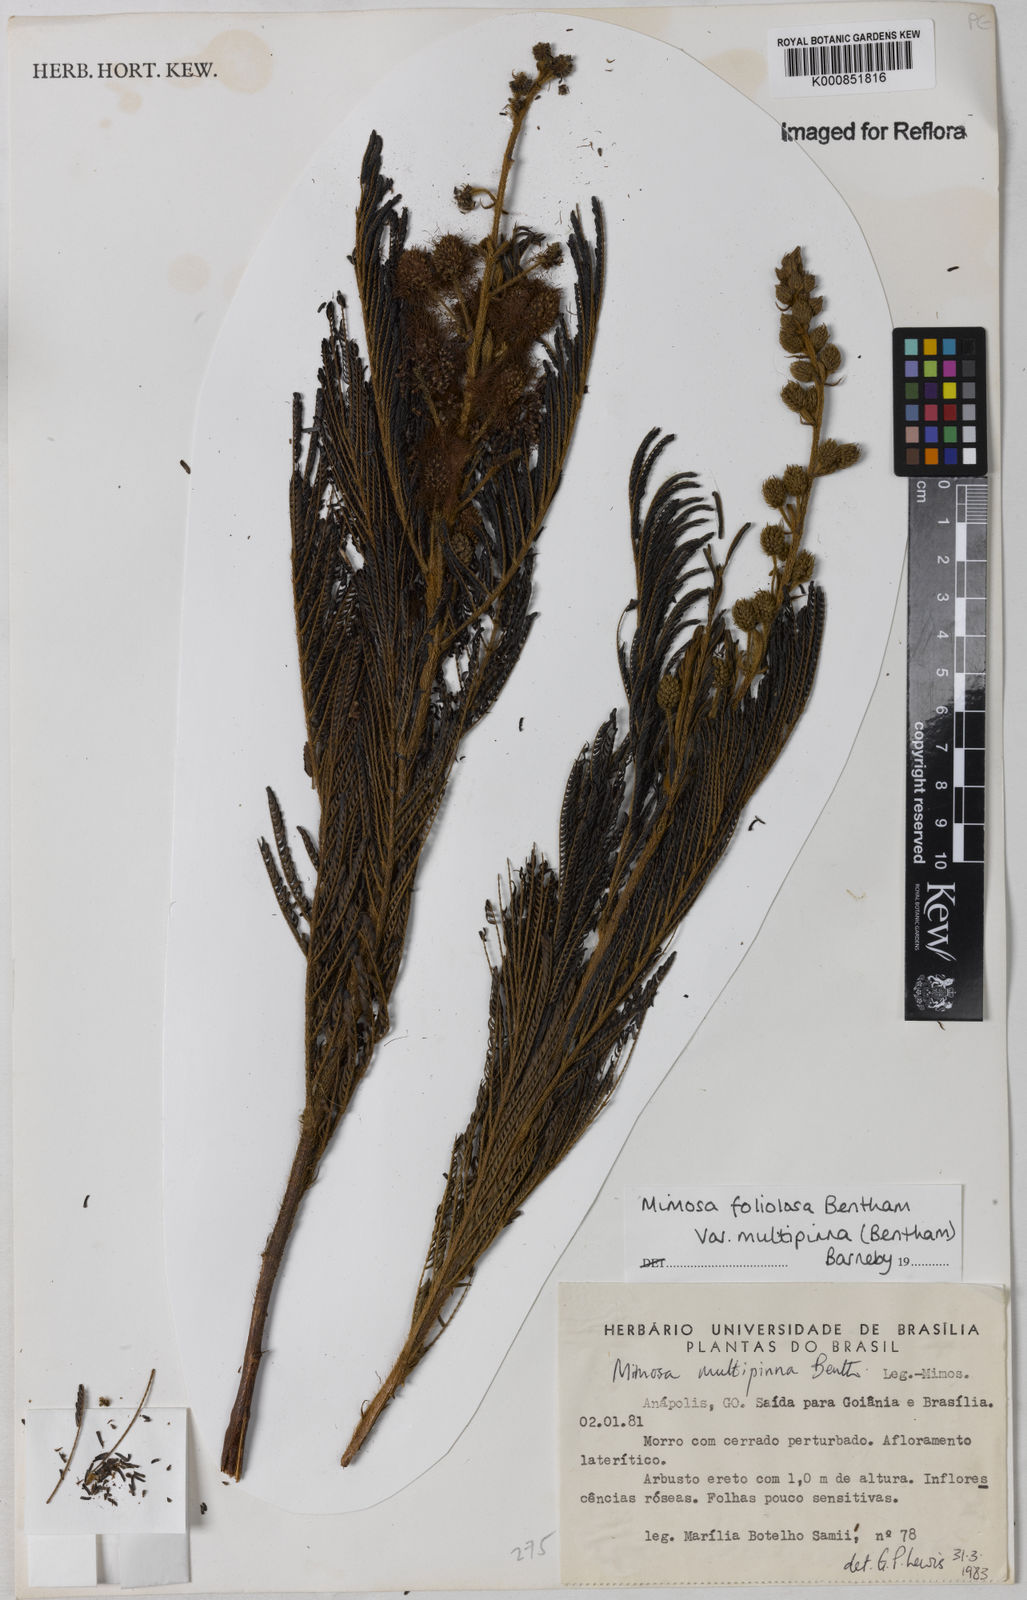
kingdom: Plantae
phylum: Tracheophyta
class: Magnoliopsida
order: Fabales
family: Fabaceae
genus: Mimosa
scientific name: Mimosa foliolosa
